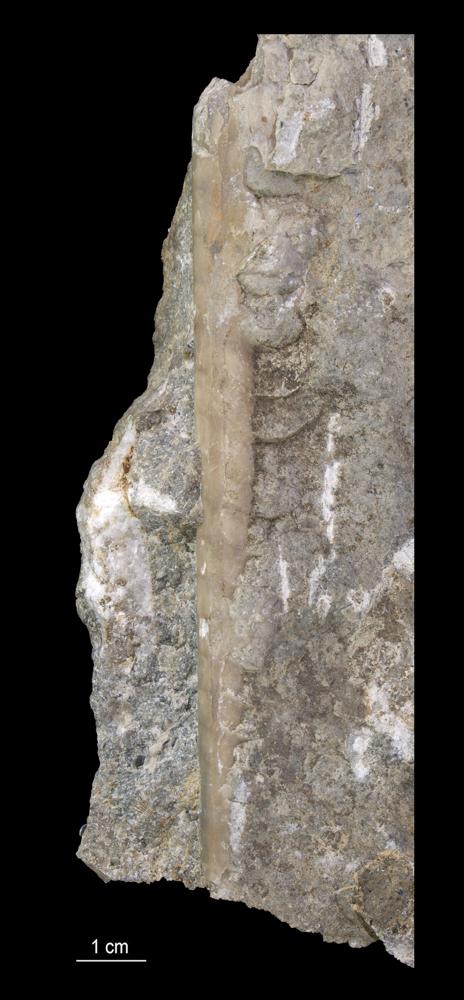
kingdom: Animalia
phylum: Mollusca
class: Cephalopoda
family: Endoceratidae
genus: Endoceras
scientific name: Endoceras
